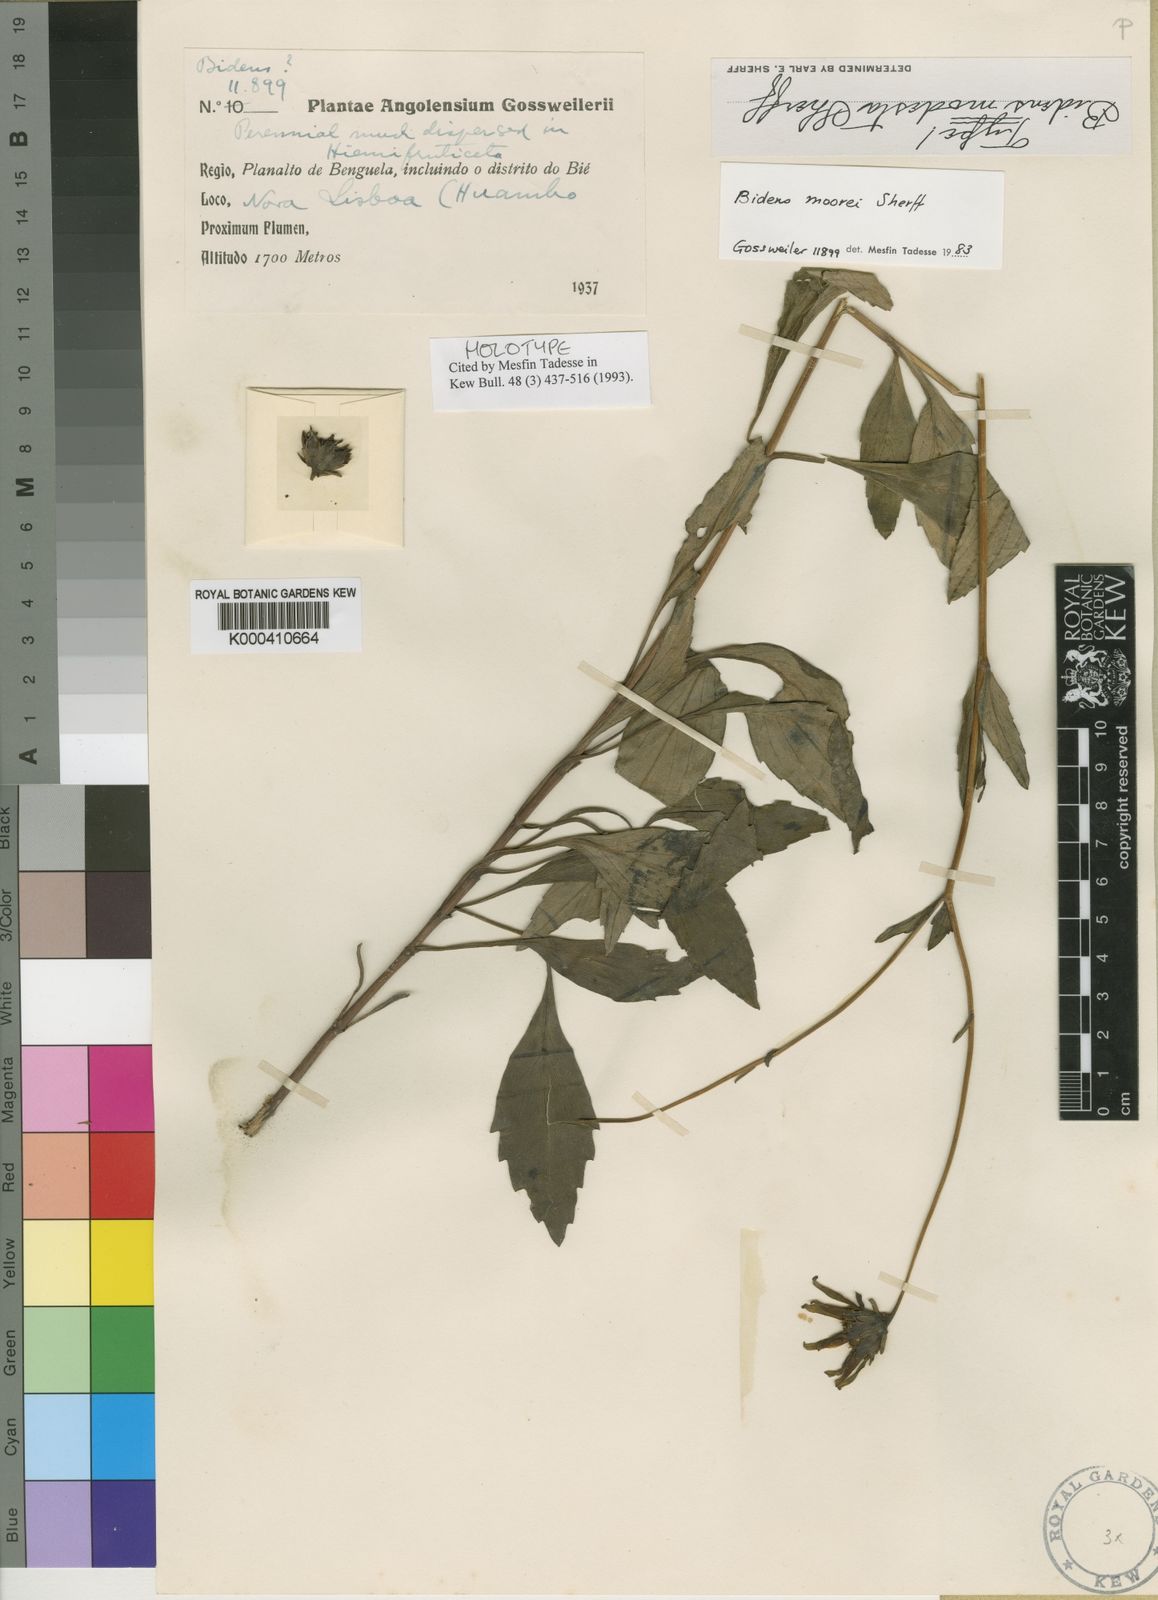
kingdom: Plantae
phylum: Tracheophyta
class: Magnoliopsida
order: Asterales
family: Asteraceae
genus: Bidens
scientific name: Bidens moorei
